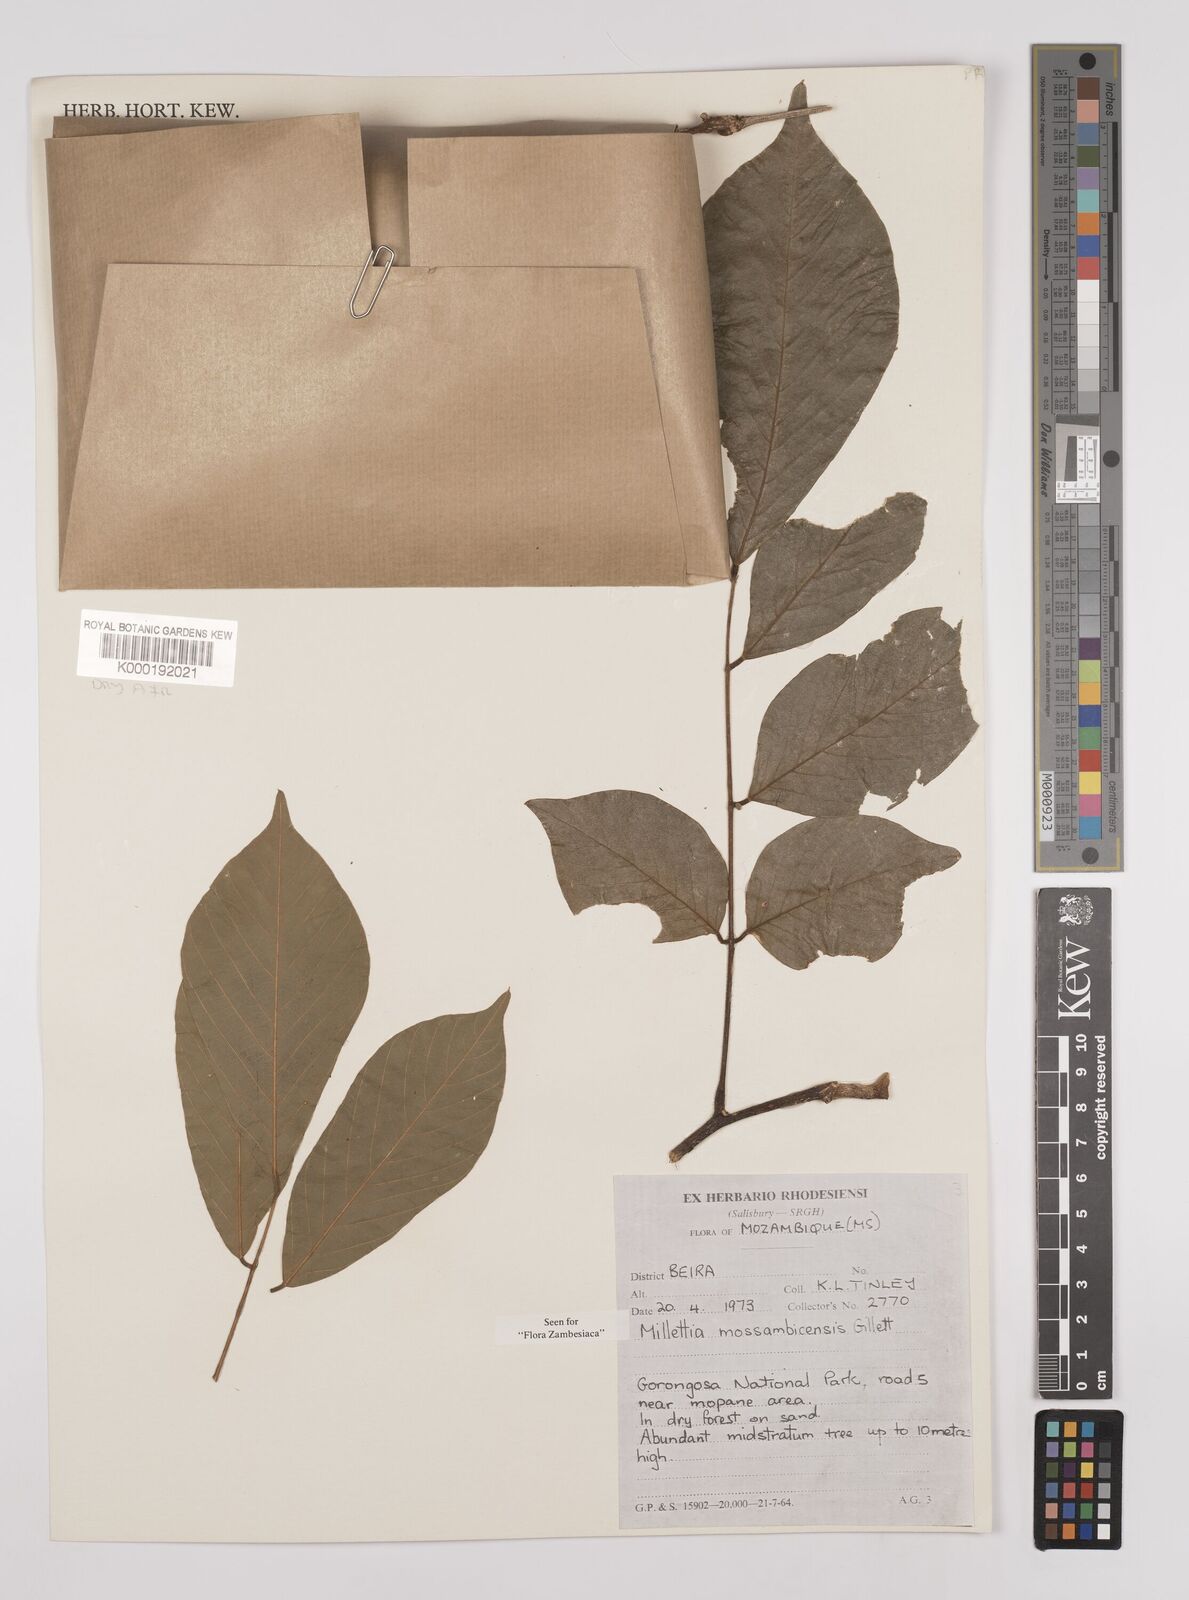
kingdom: Plantae
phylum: Tracheophyta
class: Magnoliopsida
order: Fabales
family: Fabaceae
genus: Millettia
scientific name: Millettia mossambicensis
